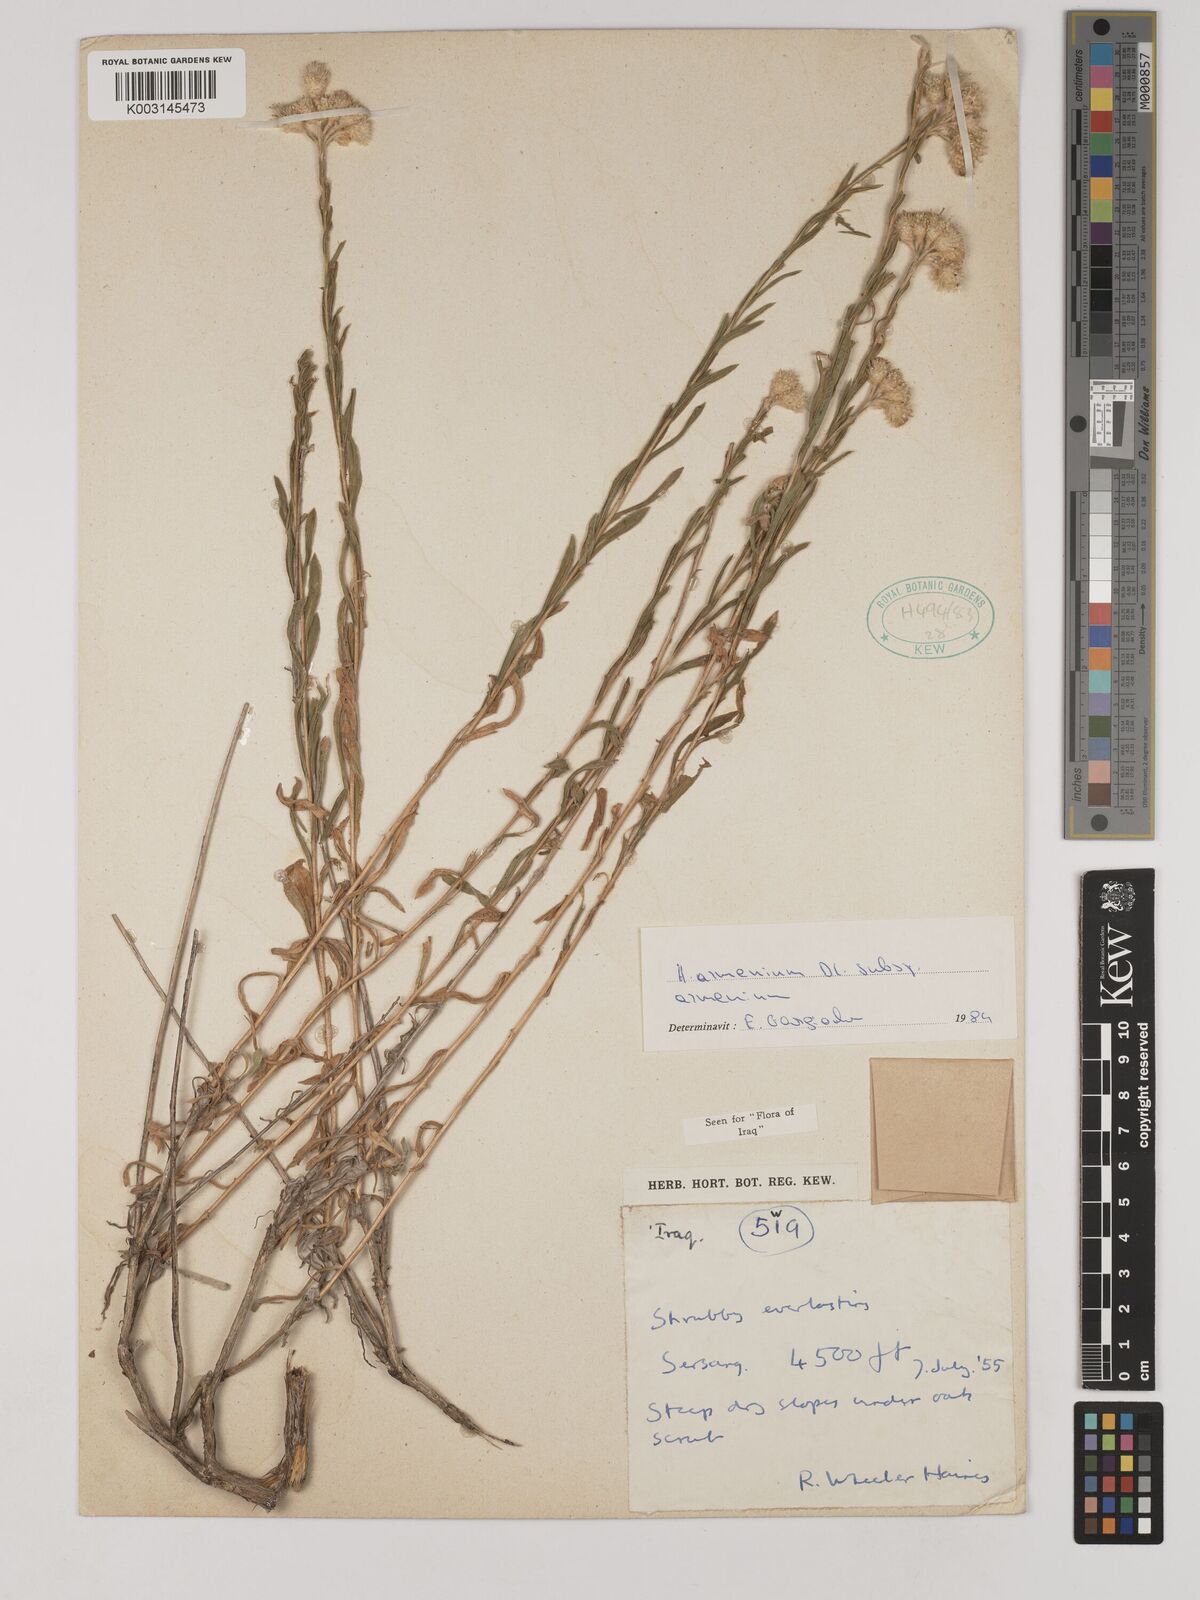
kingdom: Plantae
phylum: Tracheophyta
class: Magnoliopsida
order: Asterales
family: Asteraceae
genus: Helichrysum
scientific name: Helichrysum armenium
